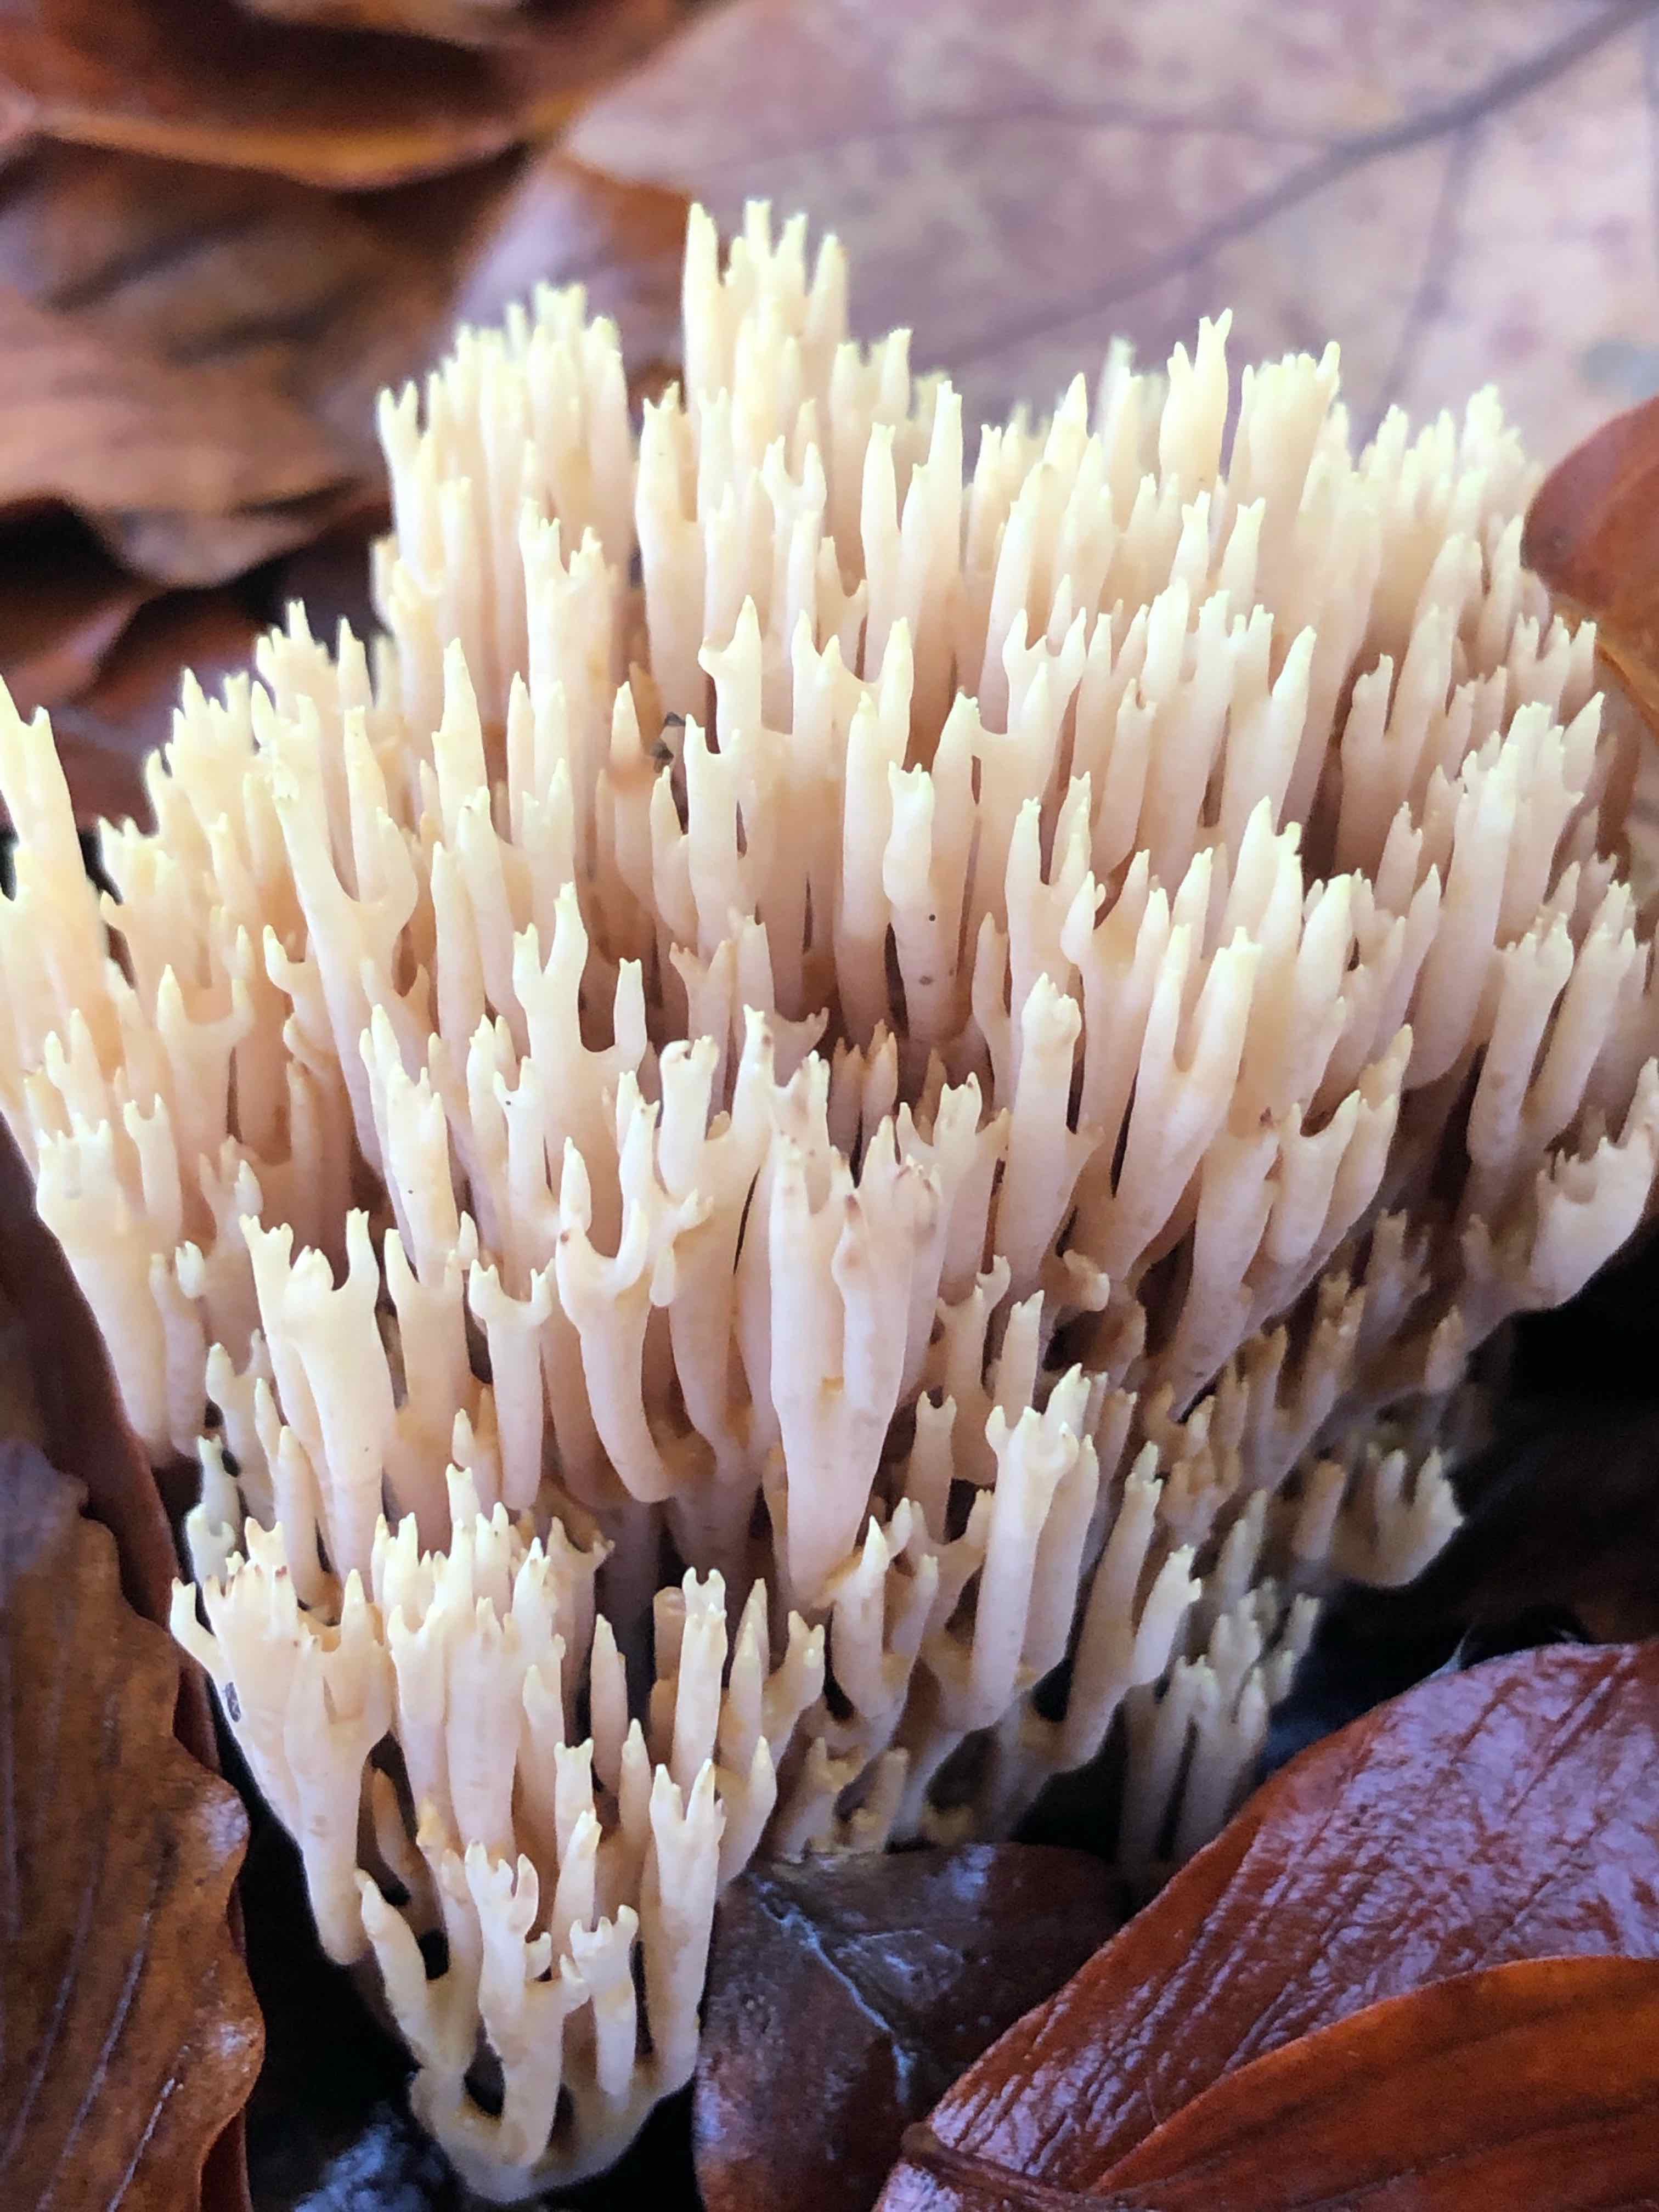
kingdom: Fungi
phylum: Basidiomycota
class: Agaricomycetes
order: Gomphales
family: Gomphaceae
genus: Ramaria
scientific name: Ramaria stricta
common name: rank koralsvamp
